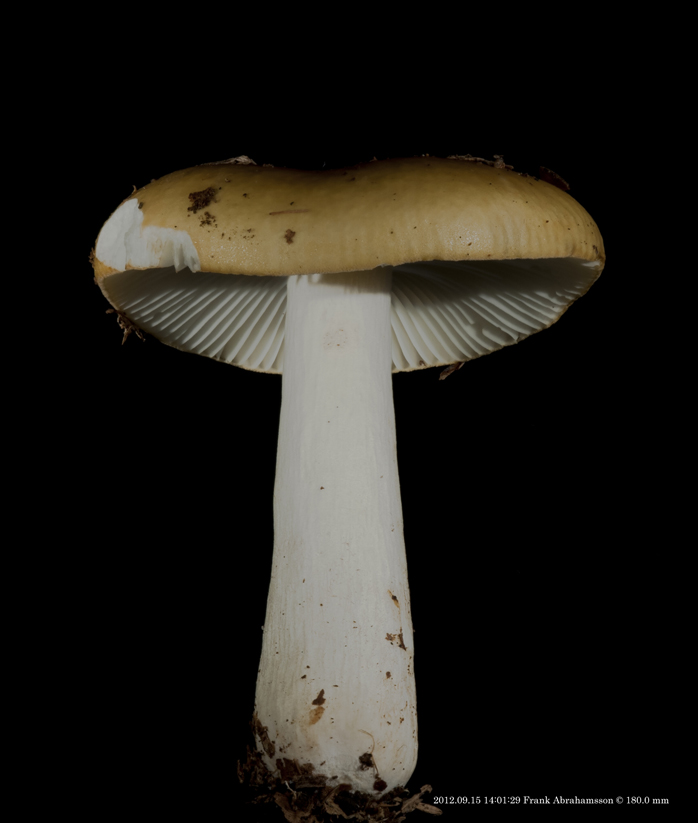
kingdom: Fungi
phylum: Basidiomycota
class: Agaricomycetes
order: Russulales
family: Russulaceae
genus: Russula
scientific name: Russula ochroleuca
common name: okkergul skørhat
